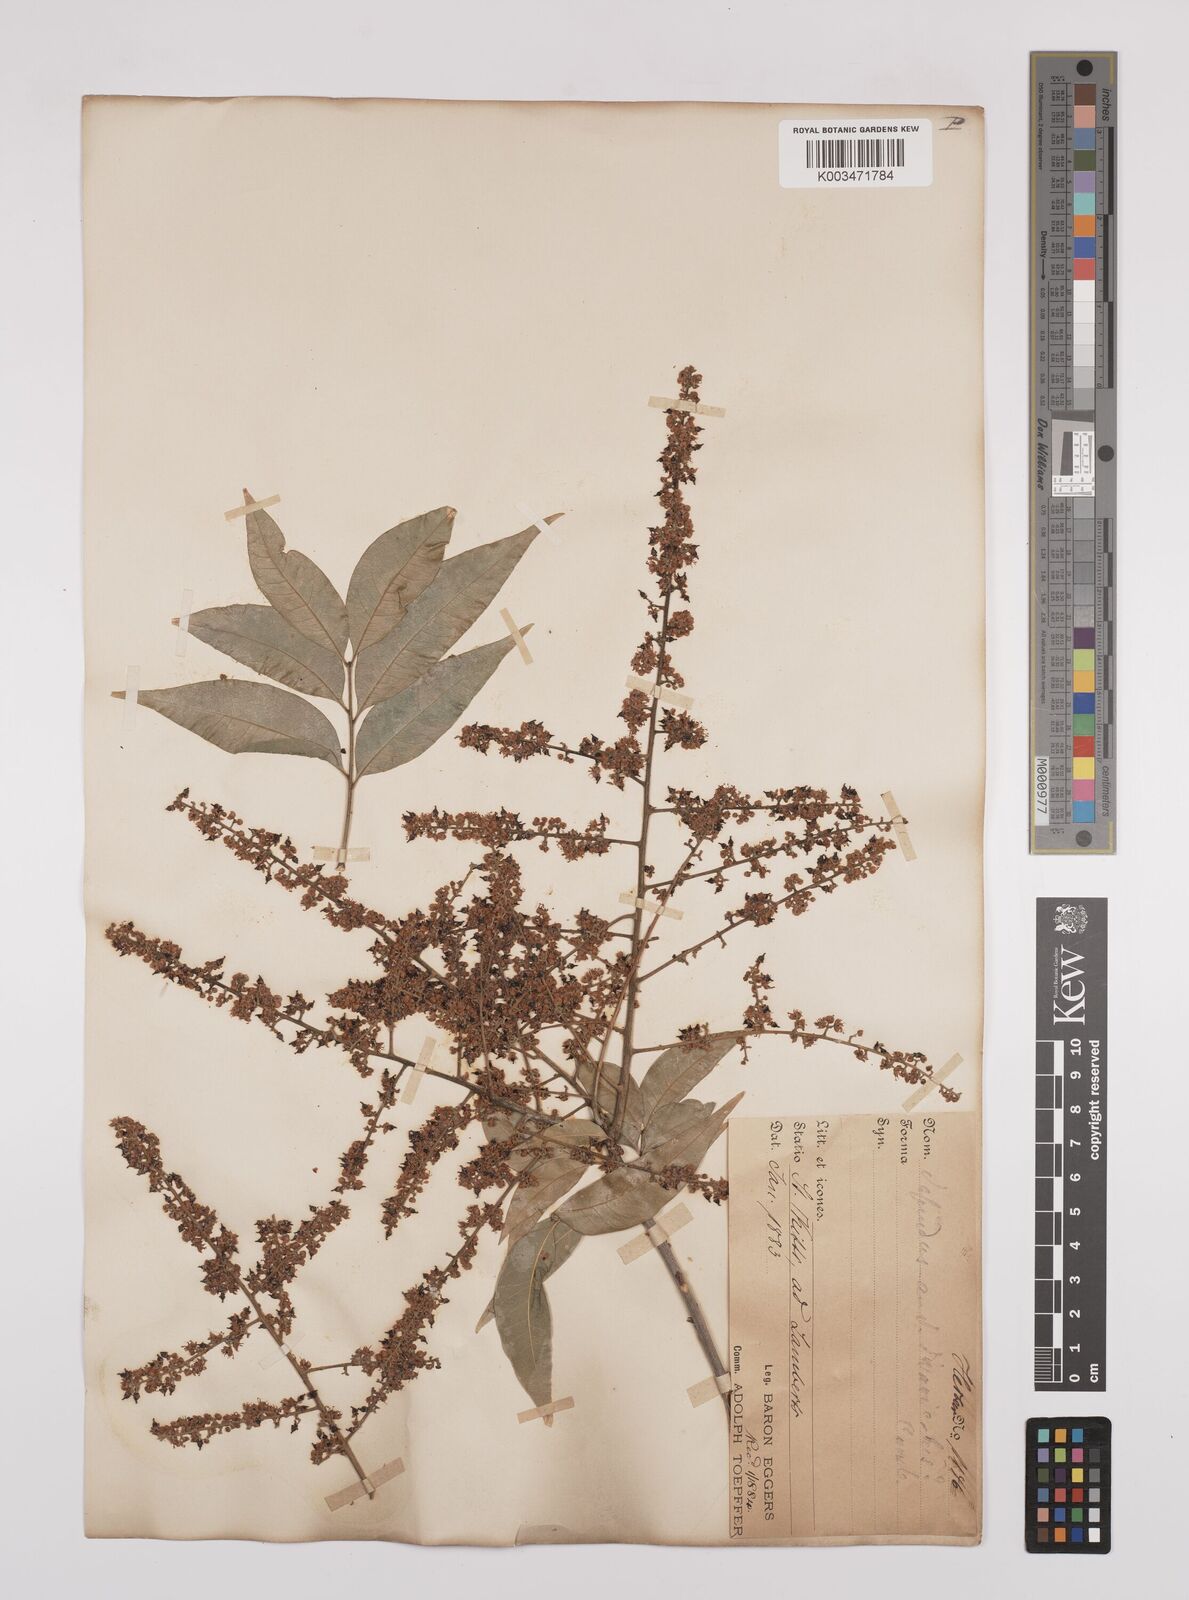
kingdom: Plantae
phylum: Tracheophyta
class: Magnoliopsida
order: Sapindales
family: Sapindaceae
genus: Sapindus
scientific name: Sapindus saponaria
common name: Wingleaf soapberry
